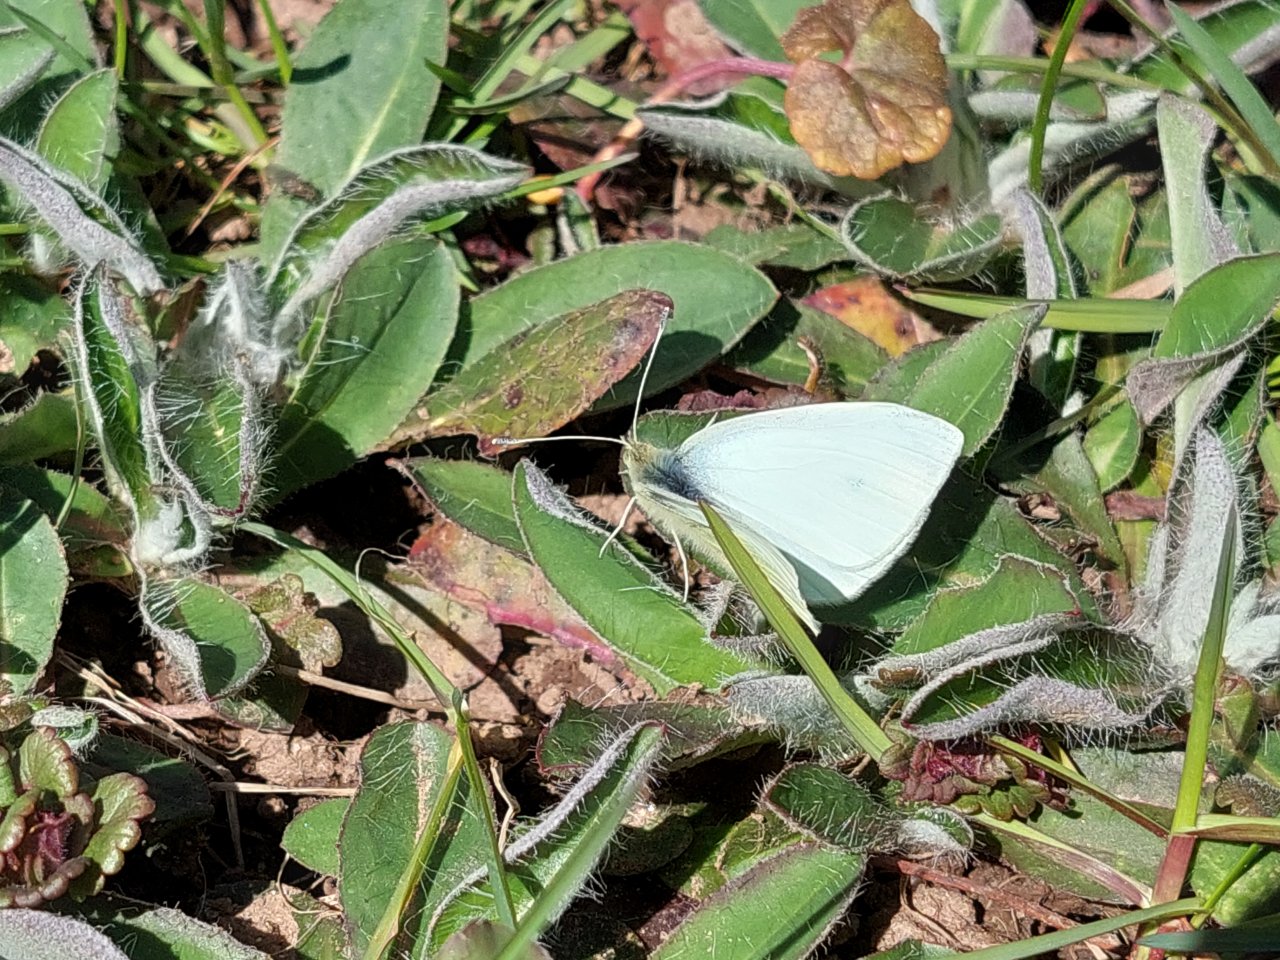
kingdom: Animalia
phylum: Arthropoda
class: Insecta
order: Lepidoptera
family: Pieridae
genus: Pieris
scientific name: Pieris rapae
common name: Cabbage White
